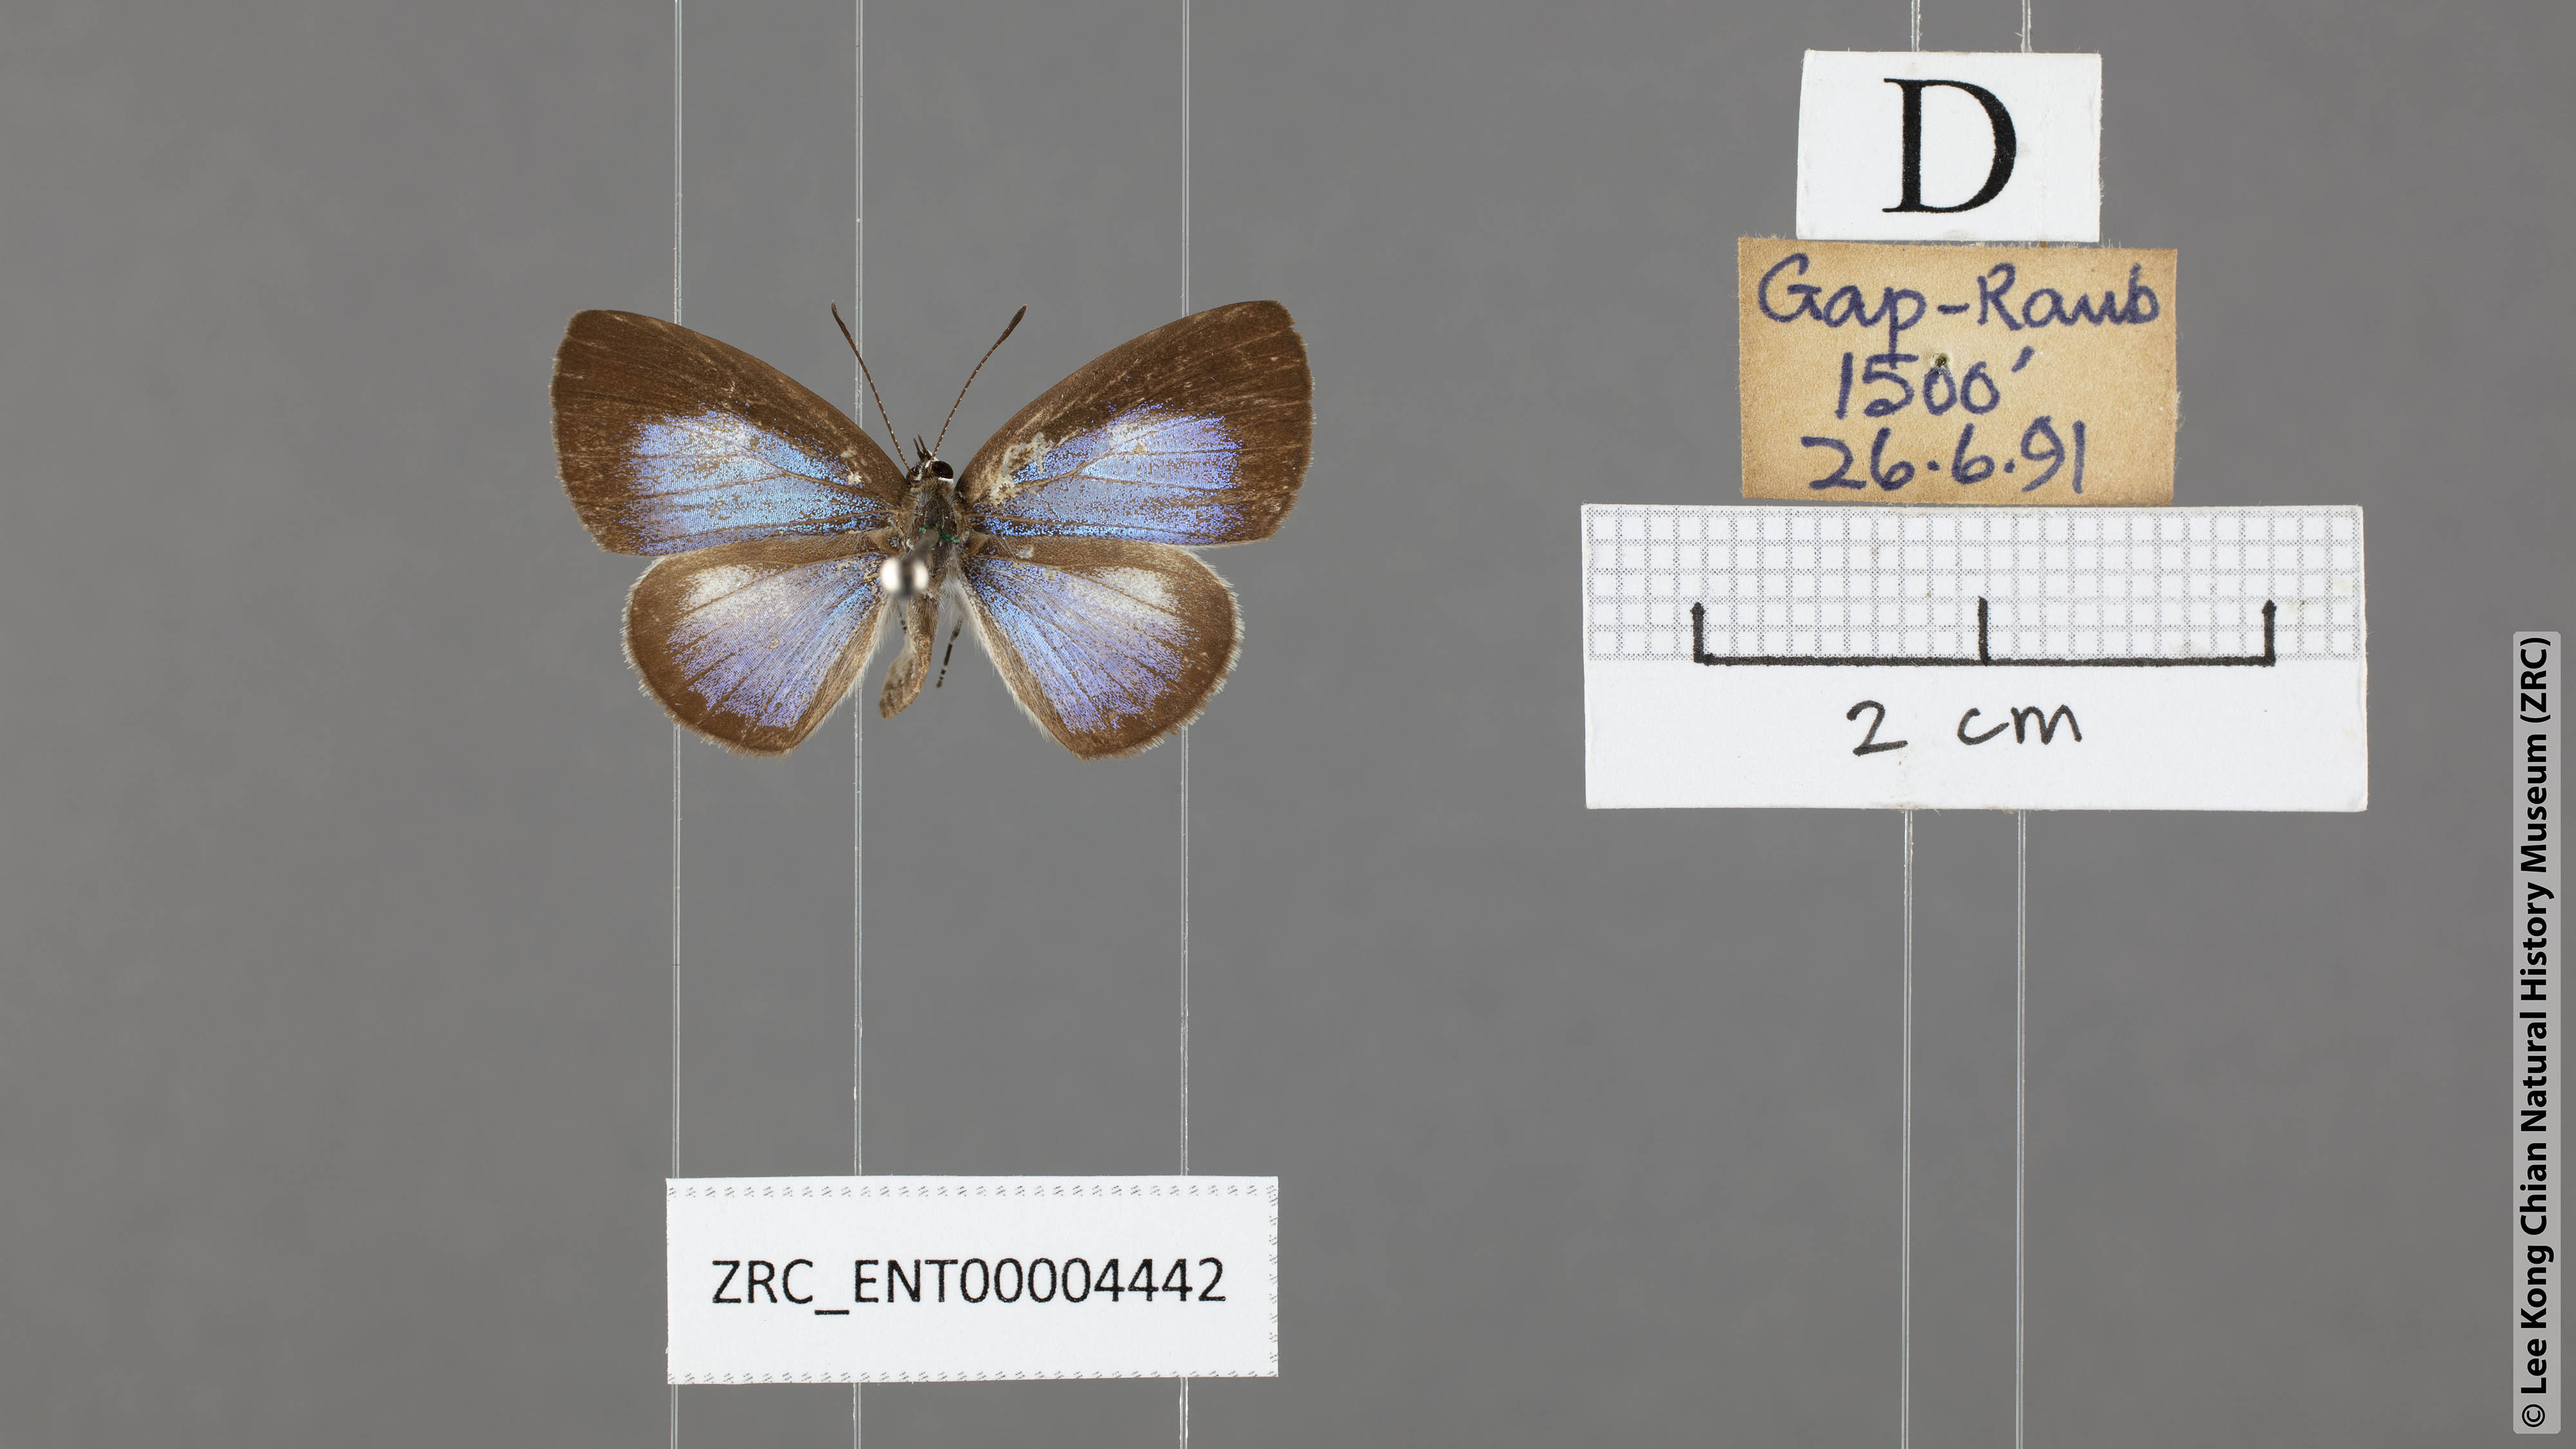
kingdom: Animalia
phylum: Arthropoda
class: Insecta
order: Lepidoptera
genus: Plautella
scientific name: Plautella
